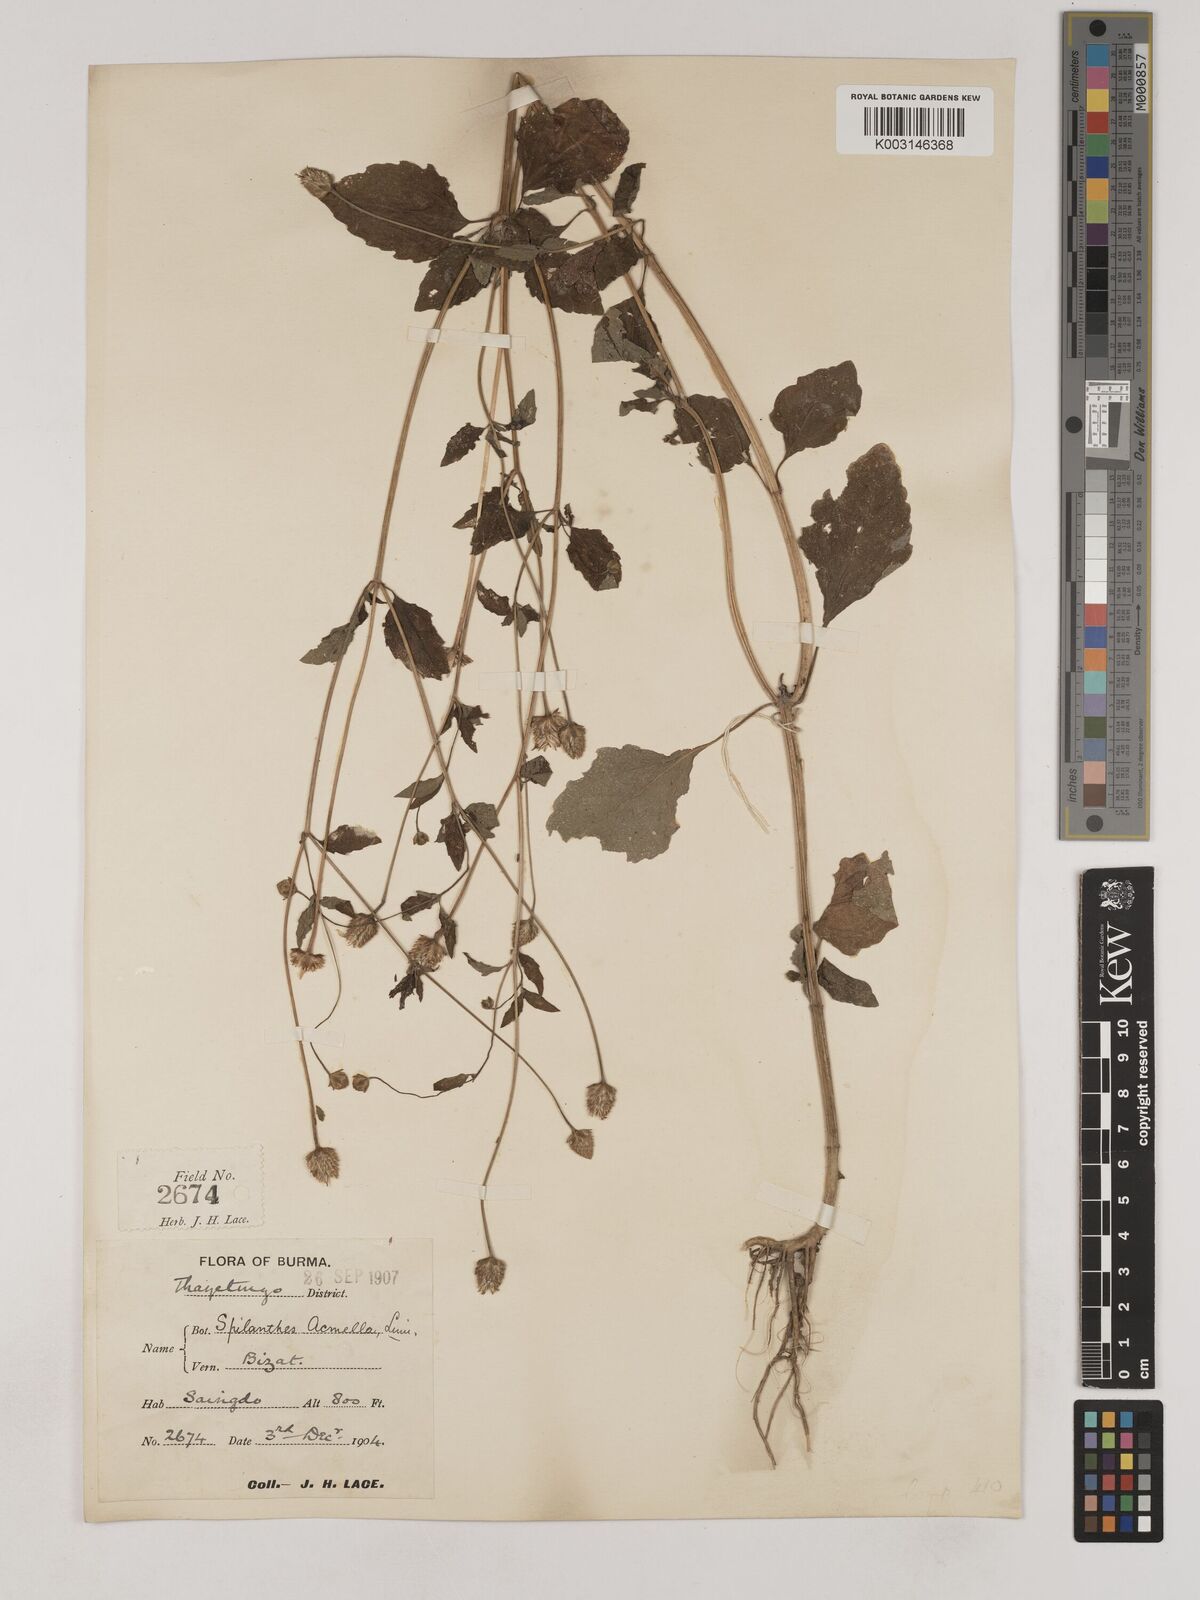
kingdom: Plantae
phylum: Tracheophyta
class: Magnoliopsida
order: Asterales
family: Asteraceae
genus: Acmella
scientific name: Acmella paniculata
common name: Panicled spot flower
